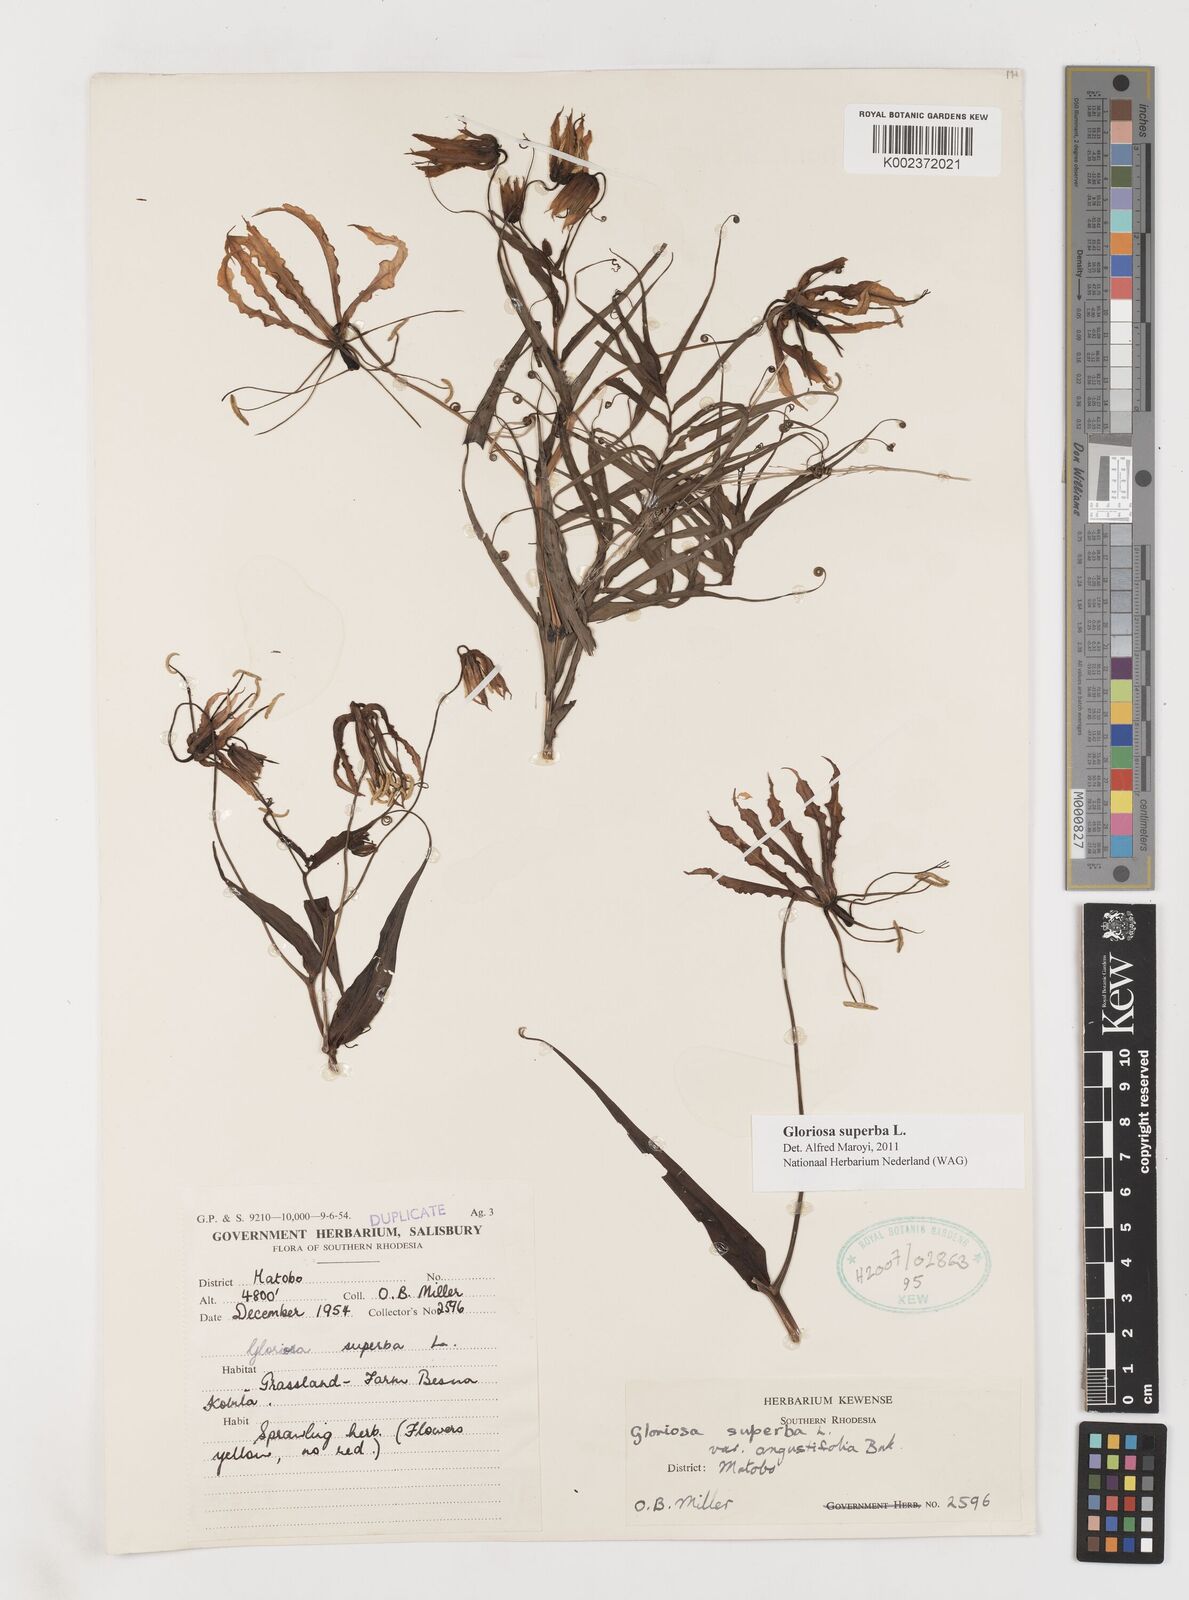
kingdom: Plantae
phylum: Tracheophyta
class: Liliopsida
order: Liliales
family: Colchicaceae
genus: Gloriosa
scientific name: Gloriosa superba
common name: Flame lily
